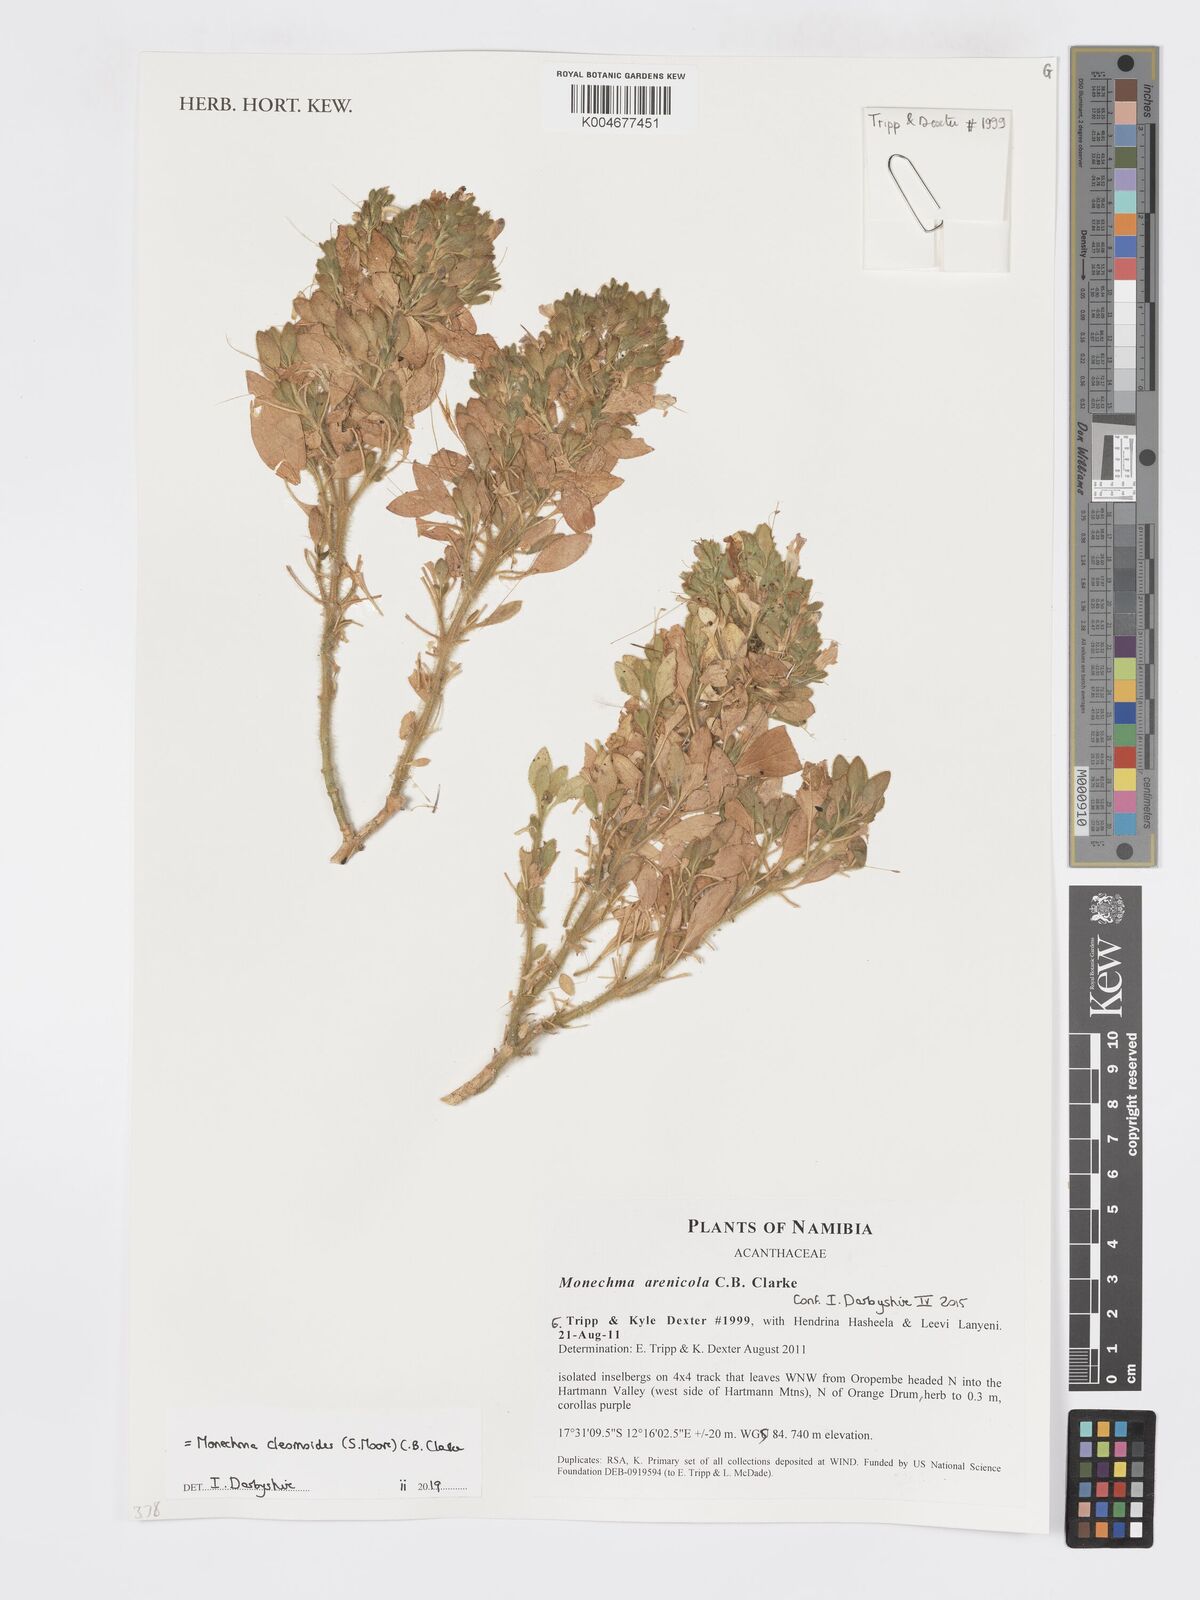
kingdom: Plantae
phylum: Tracheophyta
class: Magnoliopsida
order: Lamiales
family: Acanthaceae
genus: Pogonospermum
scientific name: Pogonospermum
